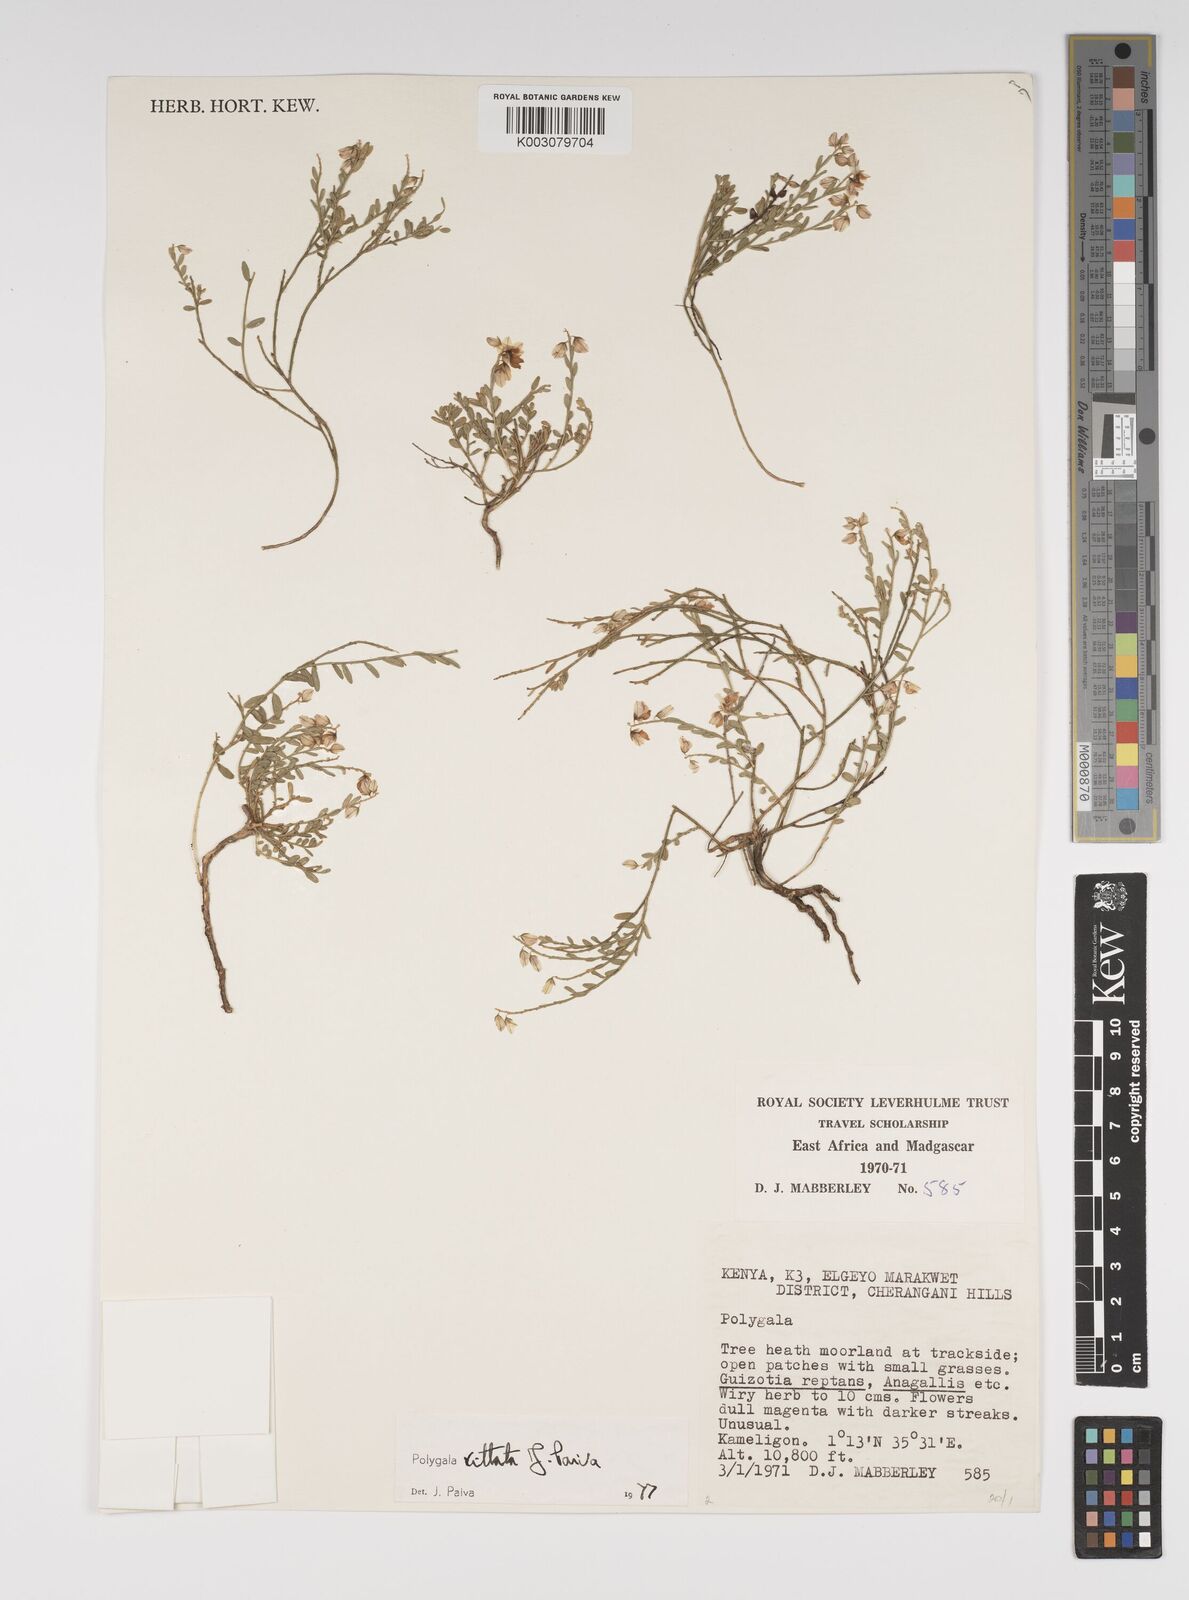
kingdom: Plantae
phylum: Tracheophyta
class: Magnoliopsida
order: Fabales
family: Polygalaceae
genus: Polygala
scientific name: Polygala vittata
